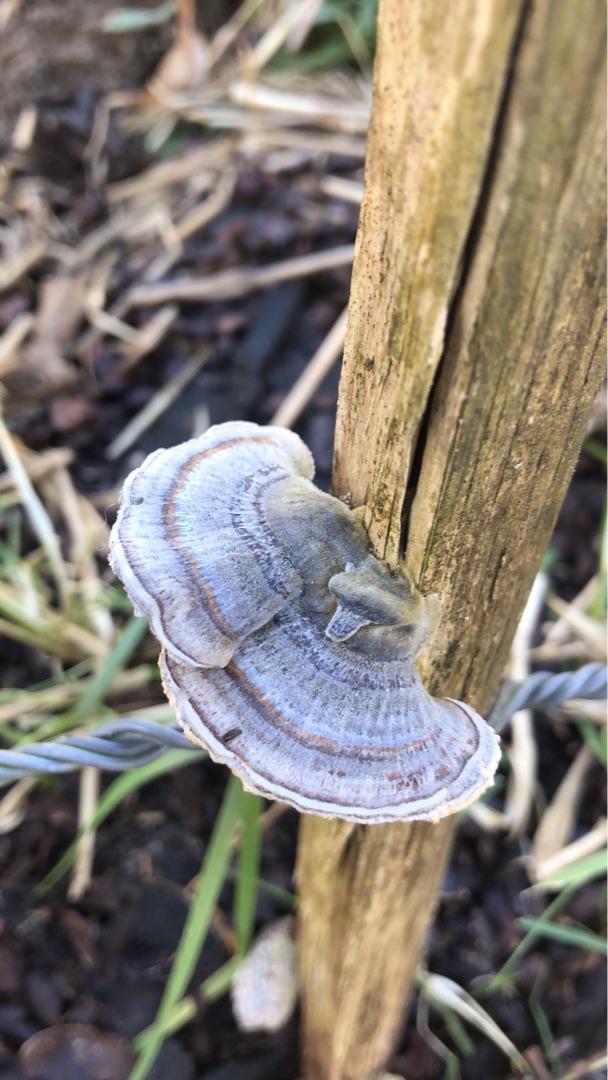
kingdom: Fungi
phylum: Basidiomycota
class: Agaricomycetes
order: Polyporales
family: Polyporaceae
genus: Trametes
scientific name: Trametes versicolor
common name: Broget læderporesvamp
